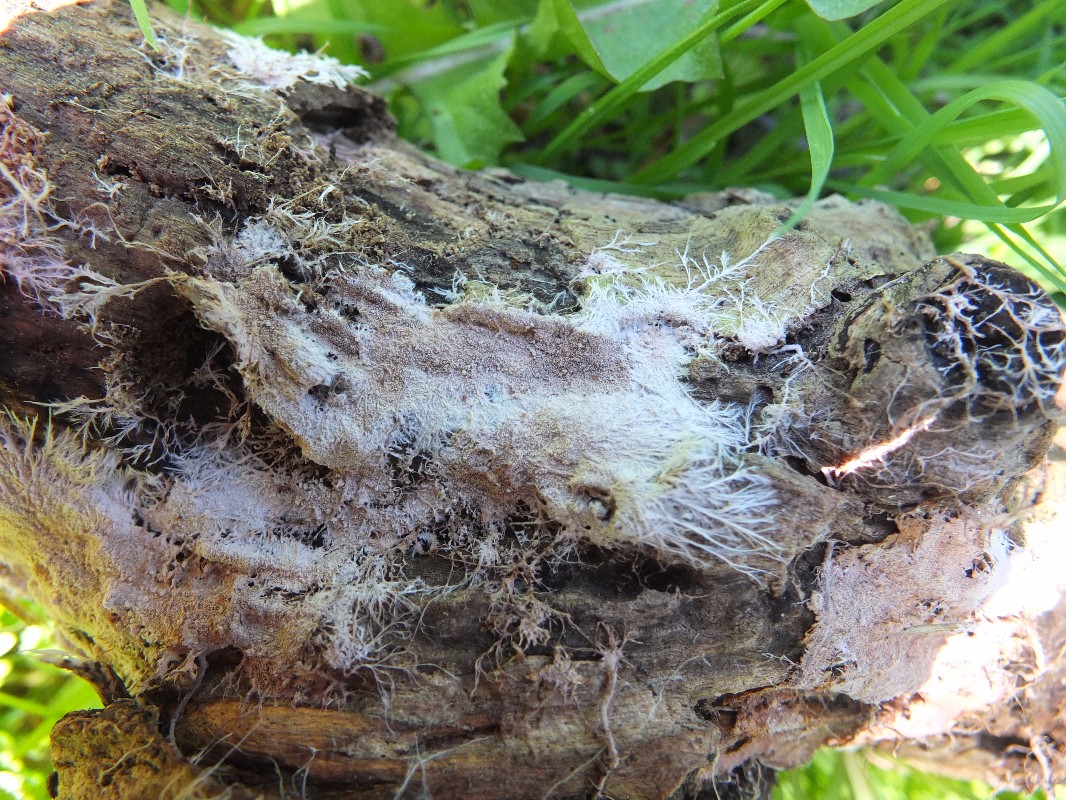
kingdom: Fungi
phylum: Basidiomycota
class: Agaricomycetes
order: Polyporales
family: Steccherinaceae
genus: Steccherinum
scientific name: Steccherinum fimbriatum
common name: trådet skønpig
